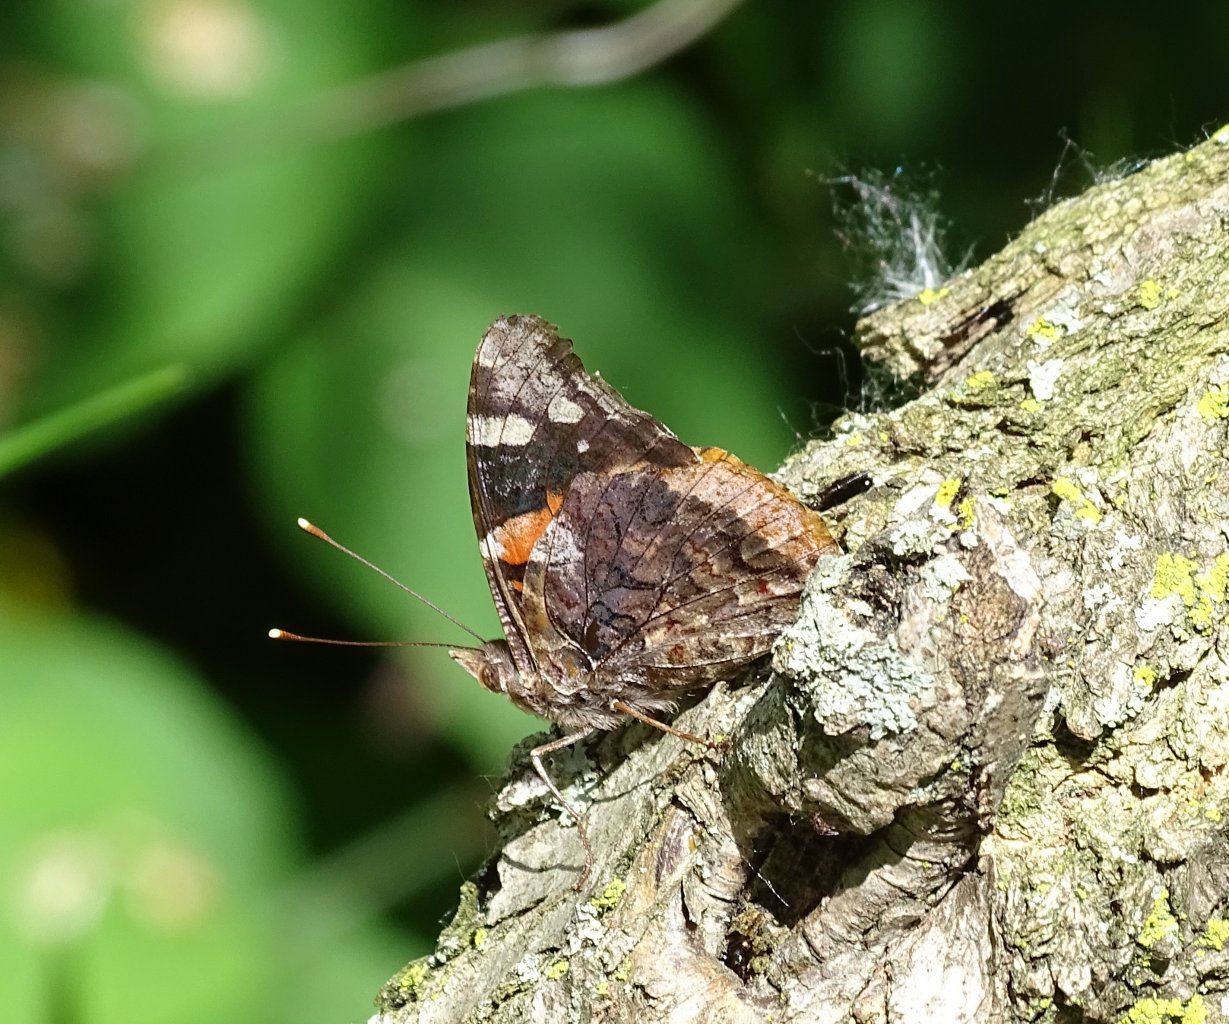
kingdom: Animalia
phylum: Arthropoda
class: Insecta
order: Lepidoptera
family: Nymphalidae
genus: Vanessa
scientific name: Vanessa atalanta
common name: Red Admiral
